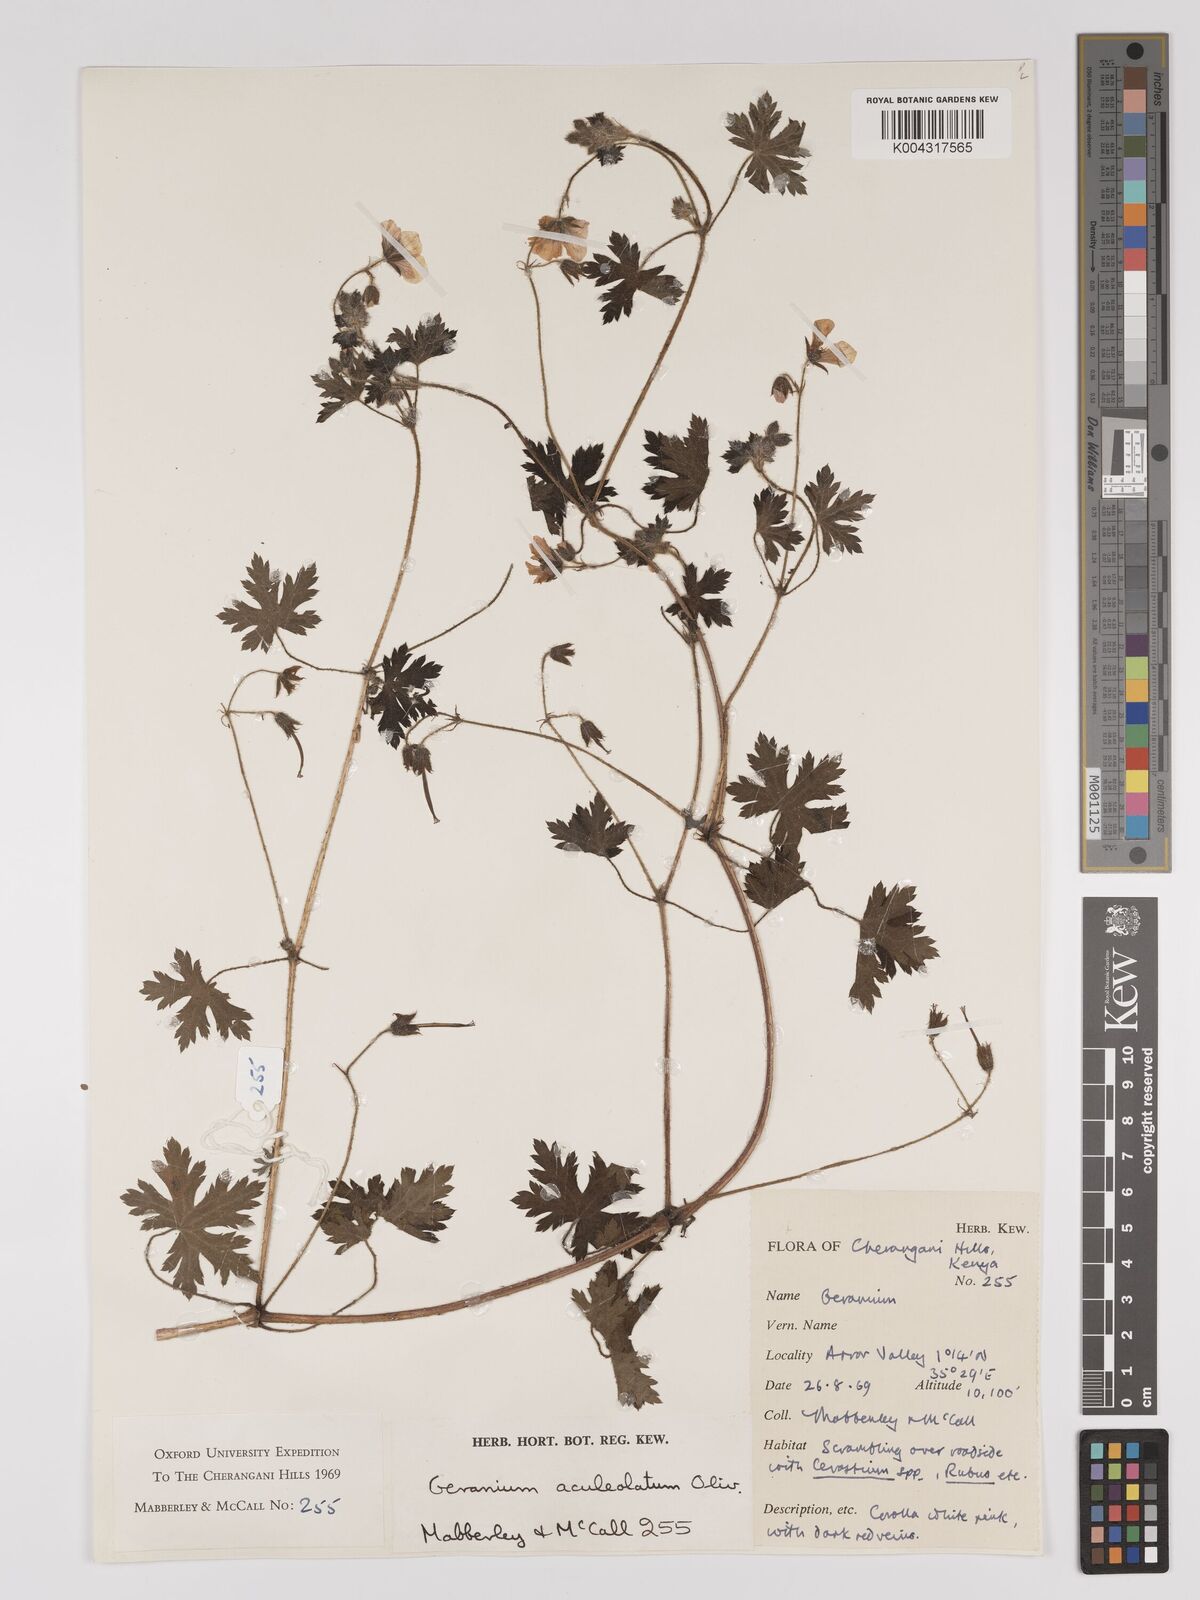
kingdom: Plantae
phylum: Tracheophyta
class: Magnoliopsida
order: Geraniales
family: Geraniaceae
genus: Geranium
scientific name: Geranium aculeolatum
